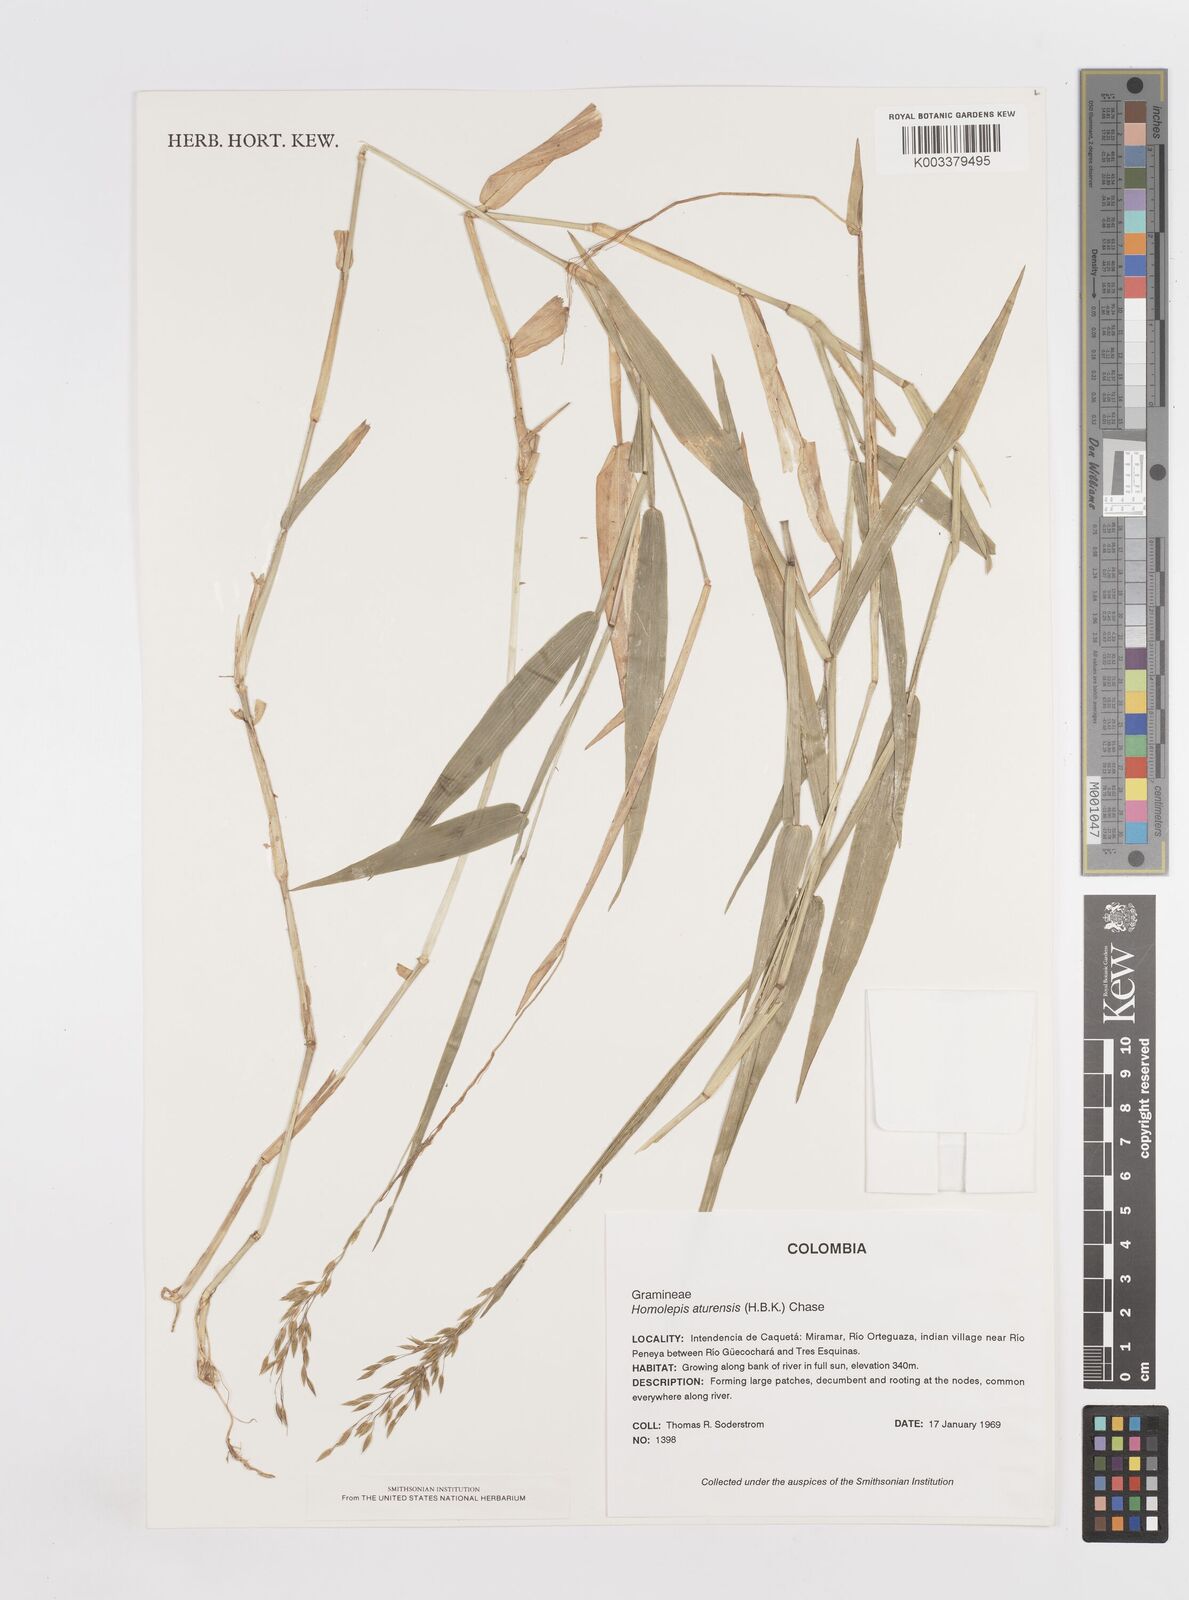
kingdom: Plantae
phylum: Tracheophyta
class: Liliopsida
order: Poales
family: Poaceae
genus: Homolepis
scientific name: Homolepis aturensis
